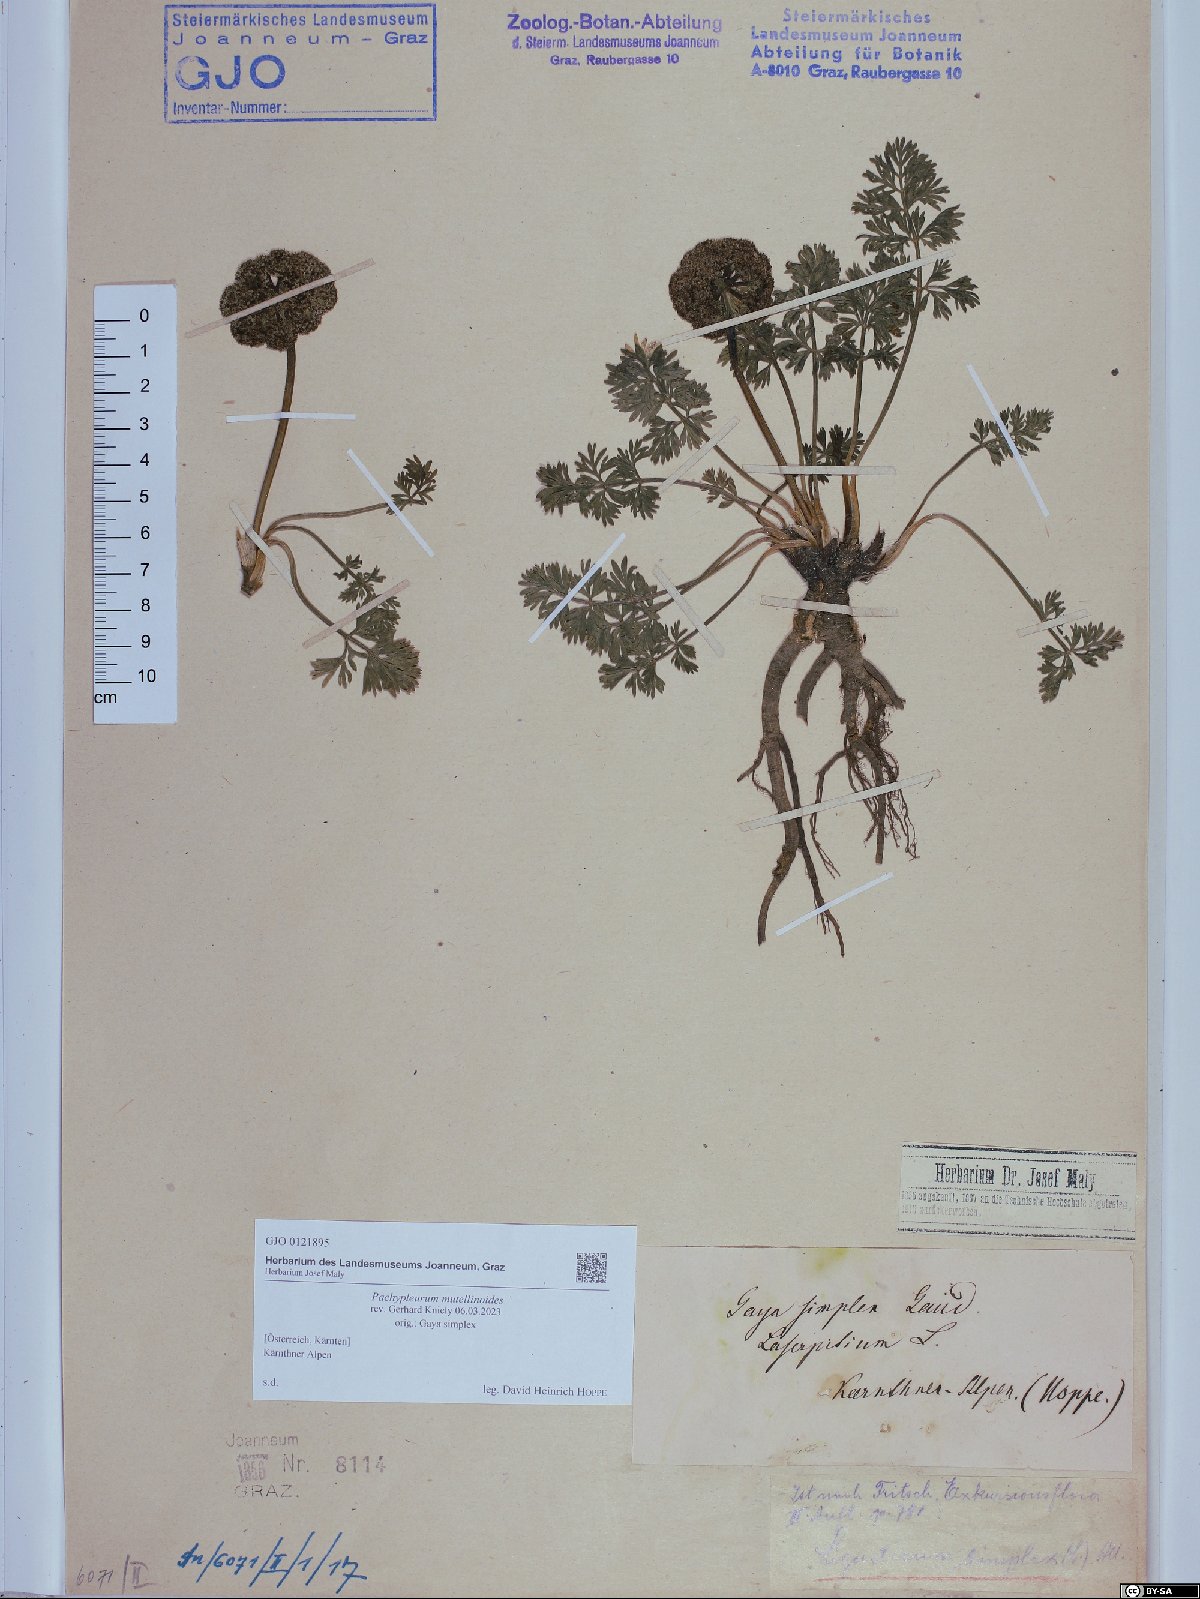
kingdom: Plantae
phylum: Tracheophyta
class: Magnoliopsida
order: Apiales
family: Apiaceae
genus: Pachypleurum
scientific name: Pachypleurum mutellinoides
